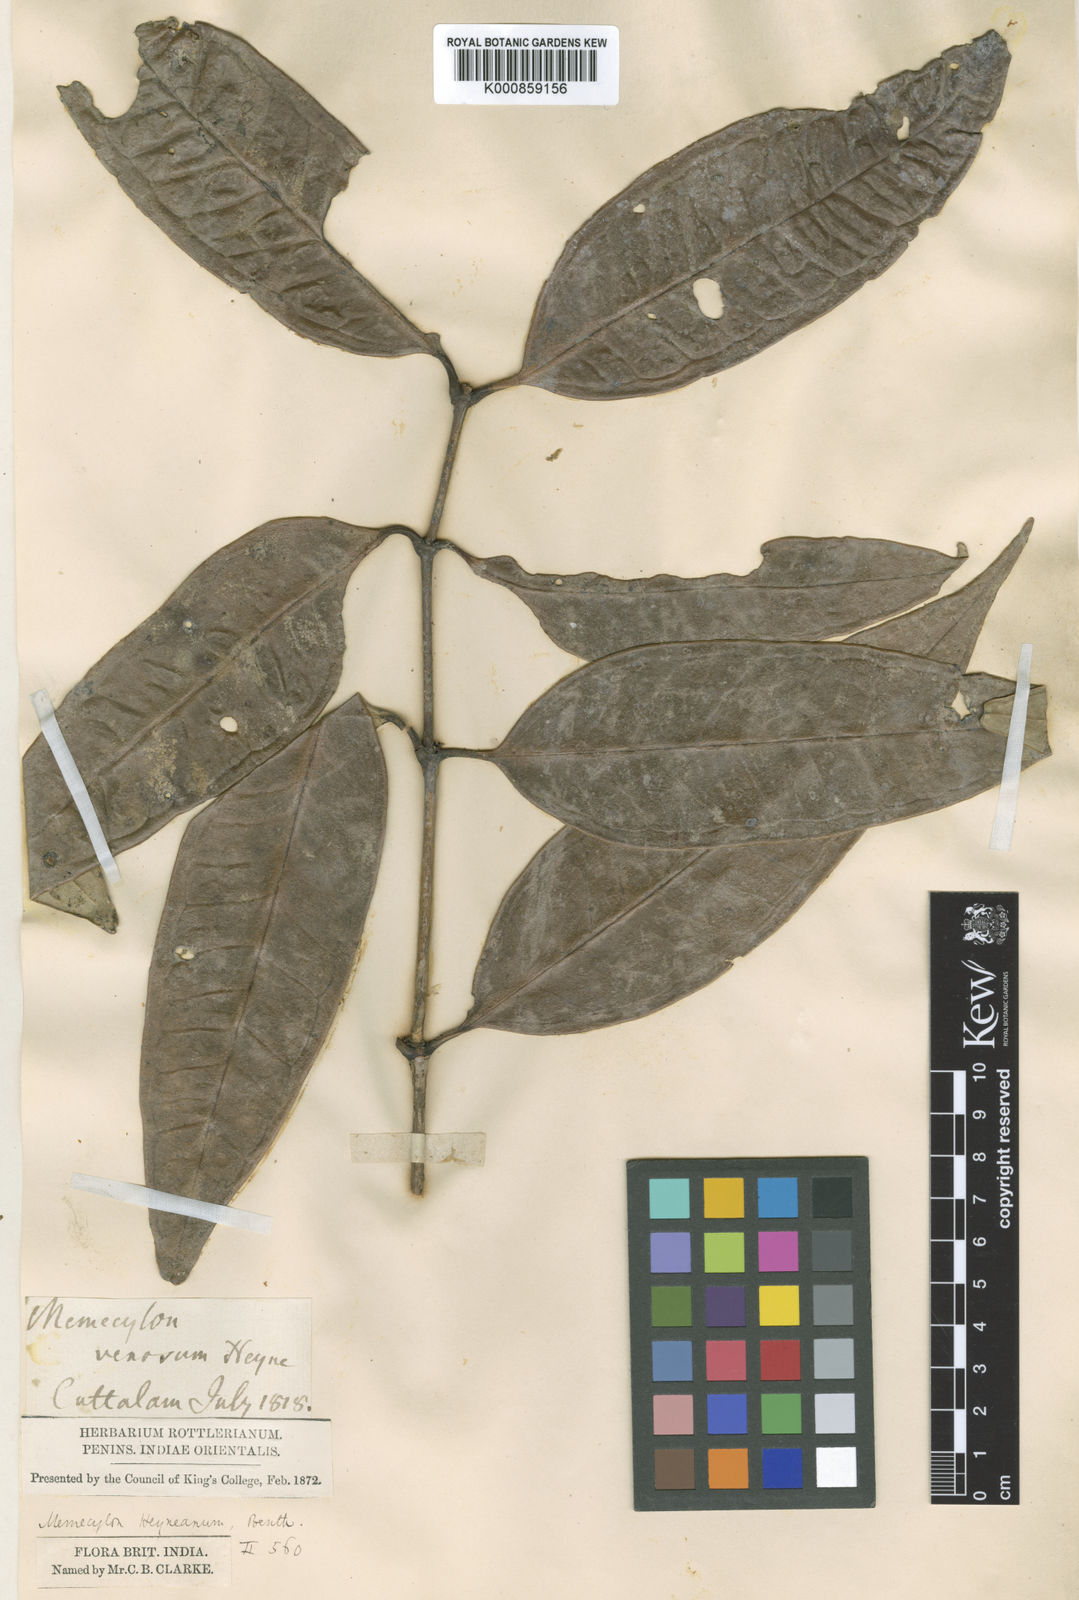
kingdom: Plantae
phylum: Tracheophyta
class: Magnoliopsida
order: Myrtales
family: Melastomataceae
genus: Memecylon
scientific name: Memecylon
